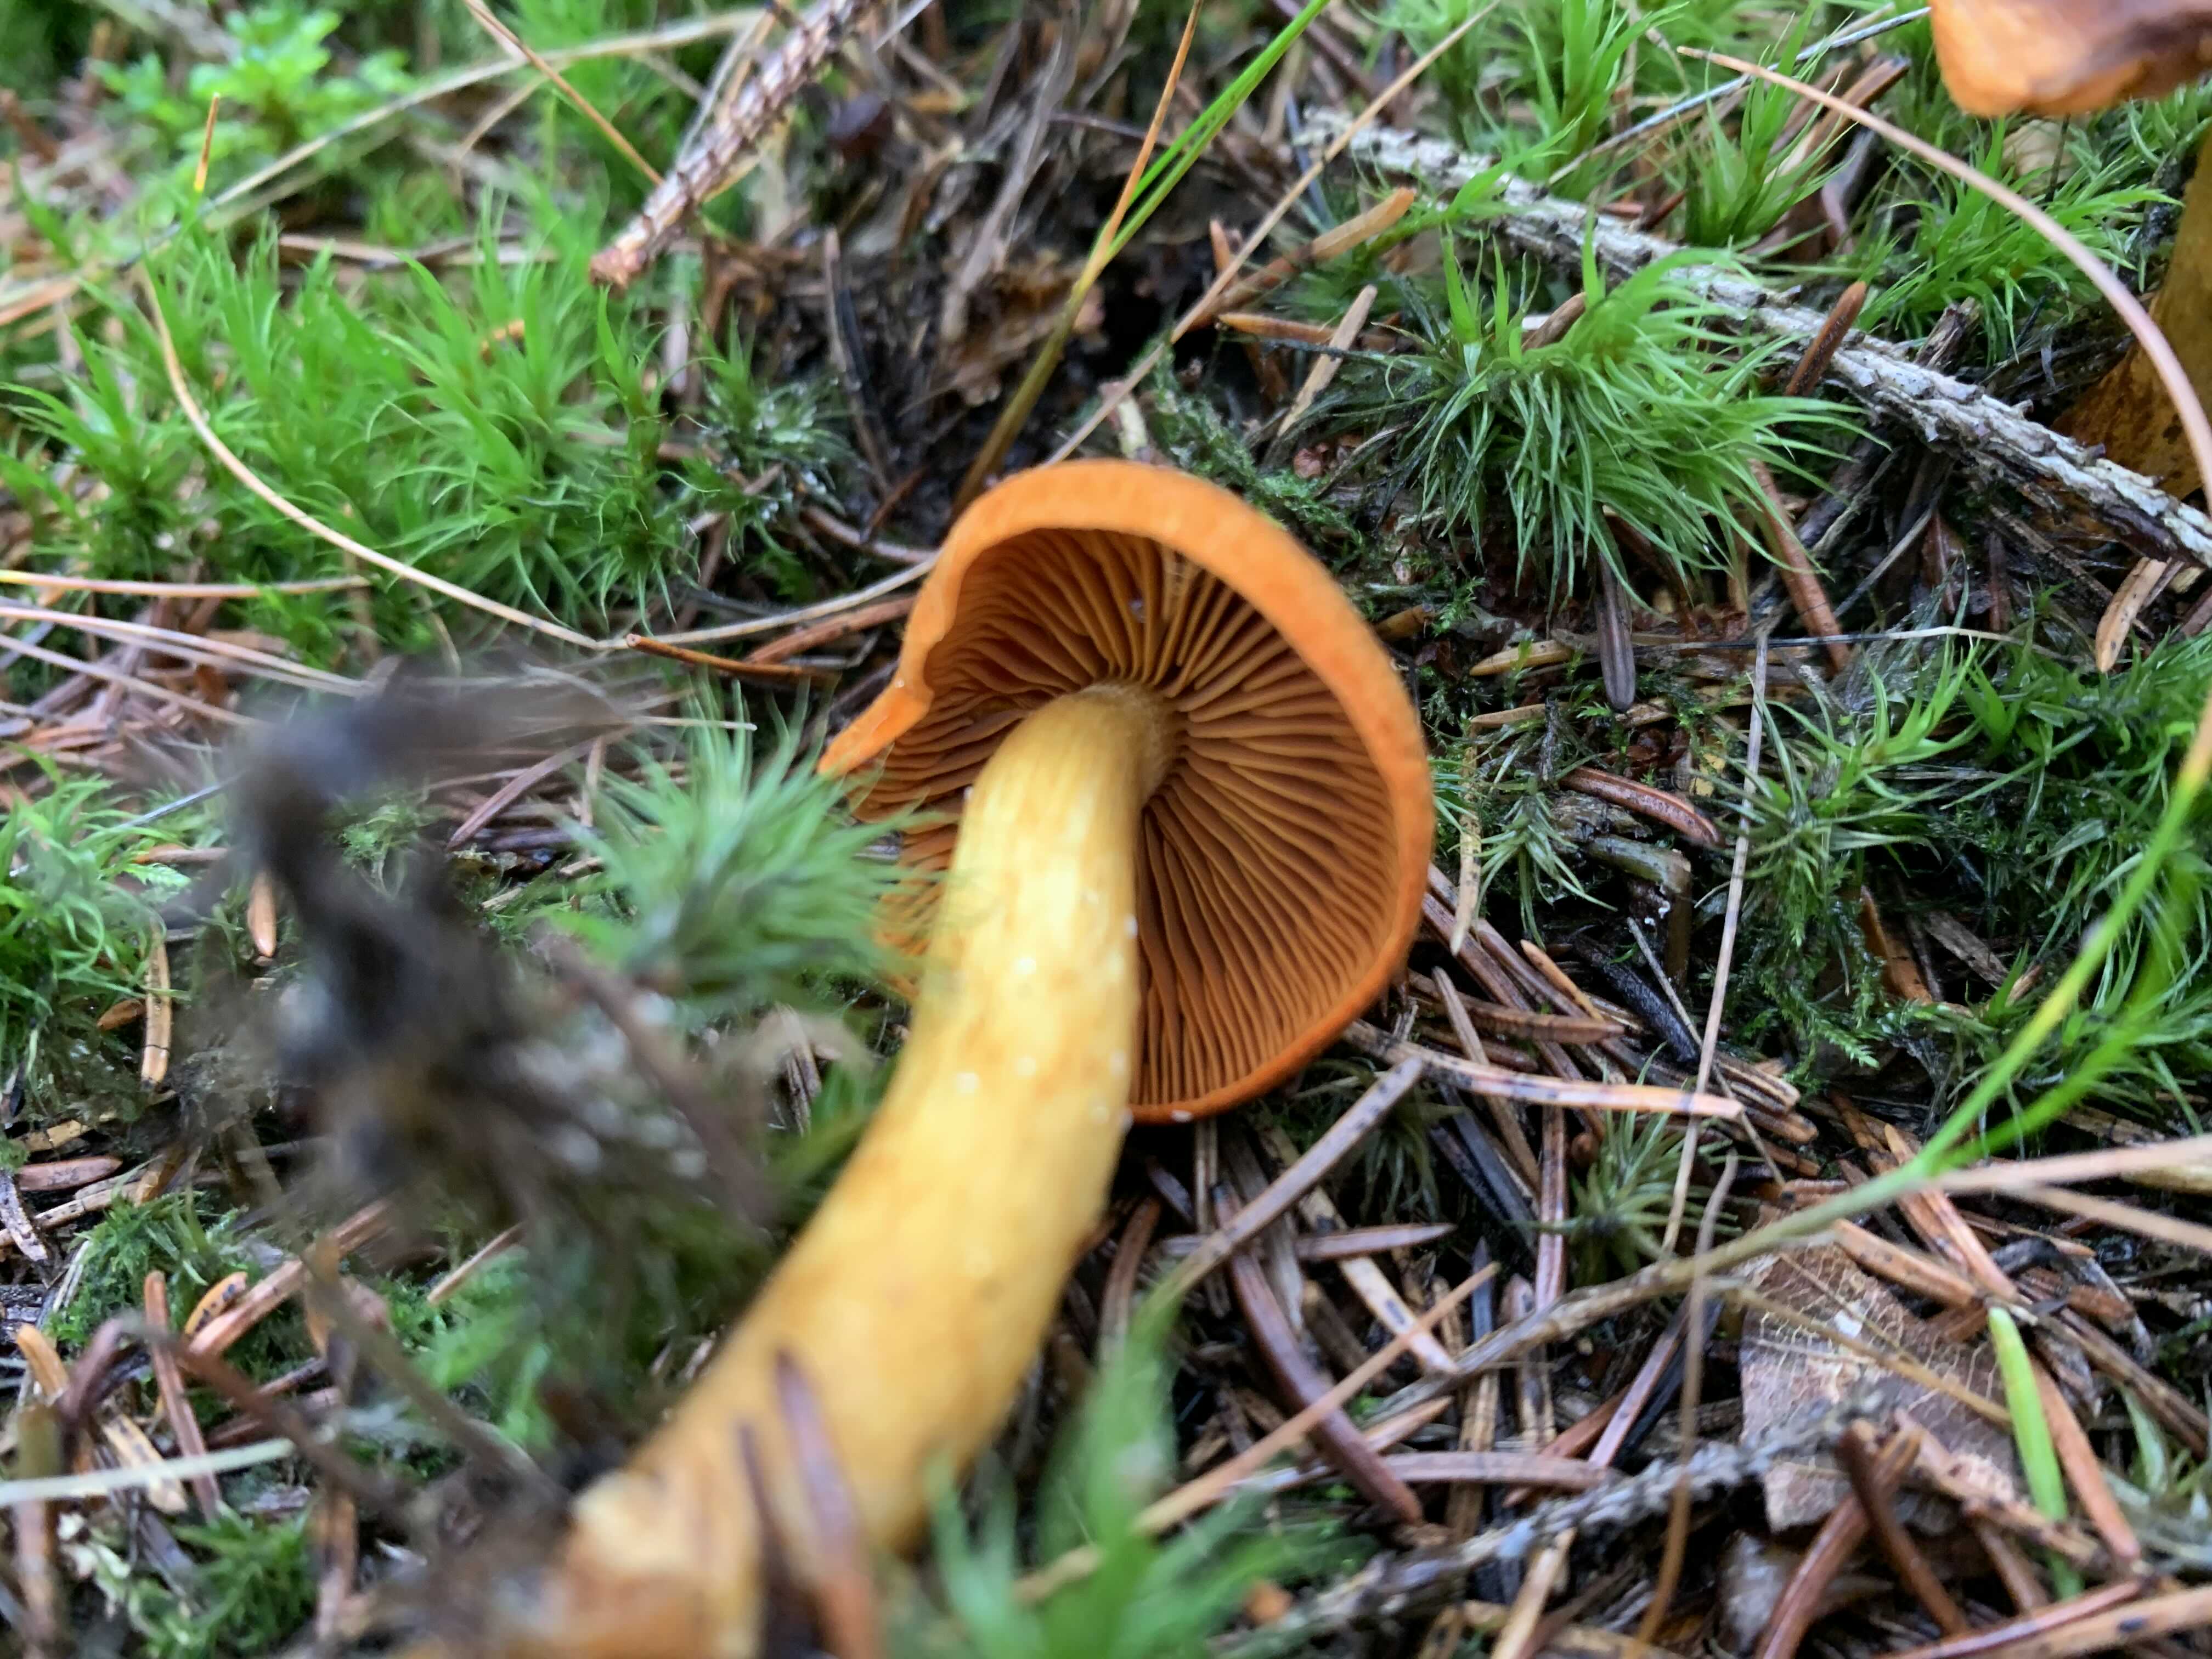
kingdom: Fungi
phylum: Basidiomycota
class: Agaricomycetes
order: Agaricales
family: Cortinariaceae
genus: Cortinarius
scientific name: Cortinarius malicorius
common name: grønkødet slørhat
